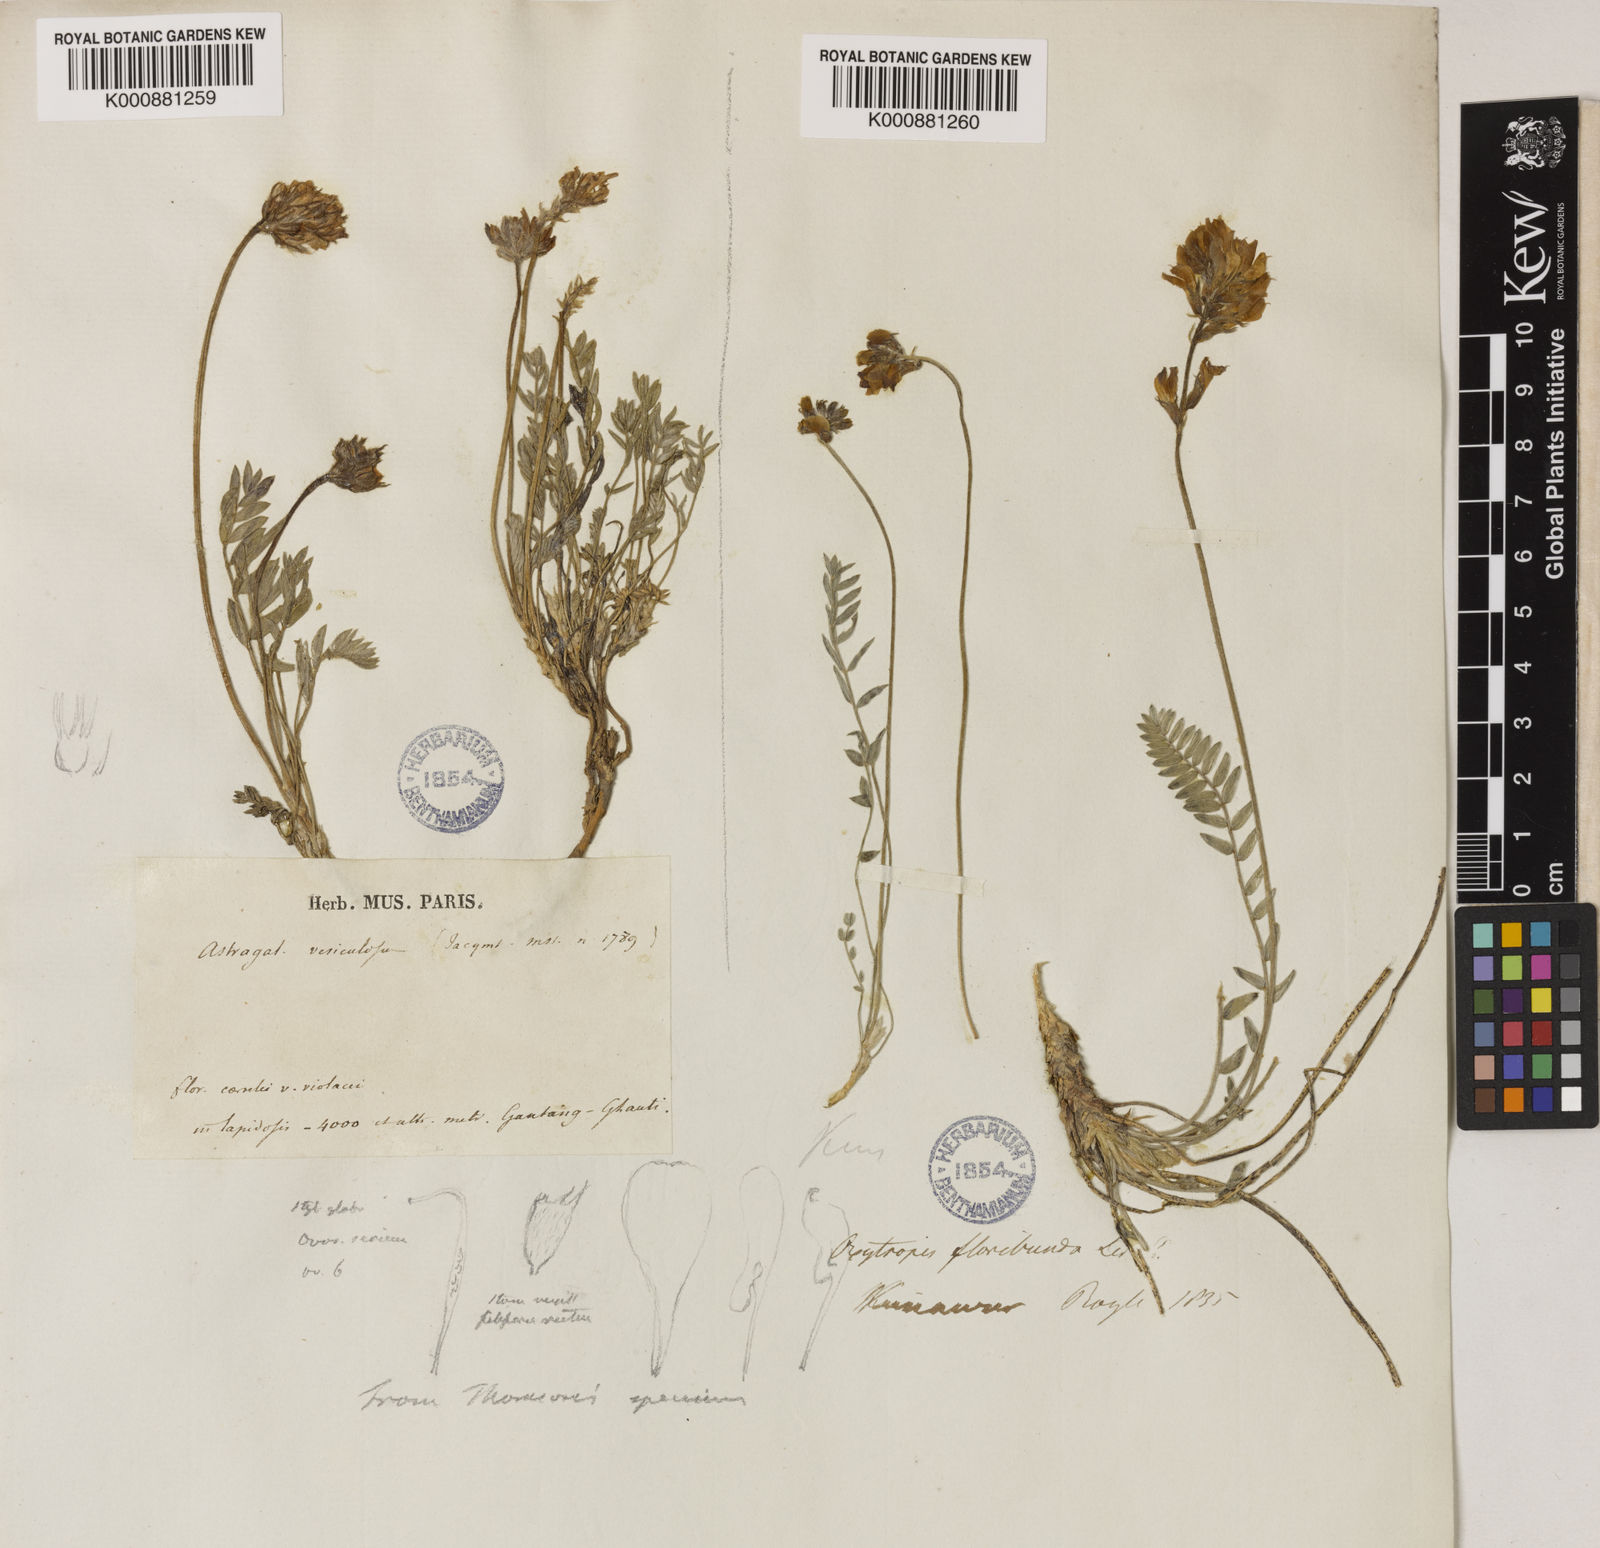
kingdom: Plantae
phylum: Tracheophyta
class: Magnoliopsida
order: Fabales
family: Fabaceae
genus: Oxytropis
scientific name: Oxytropis mollis
